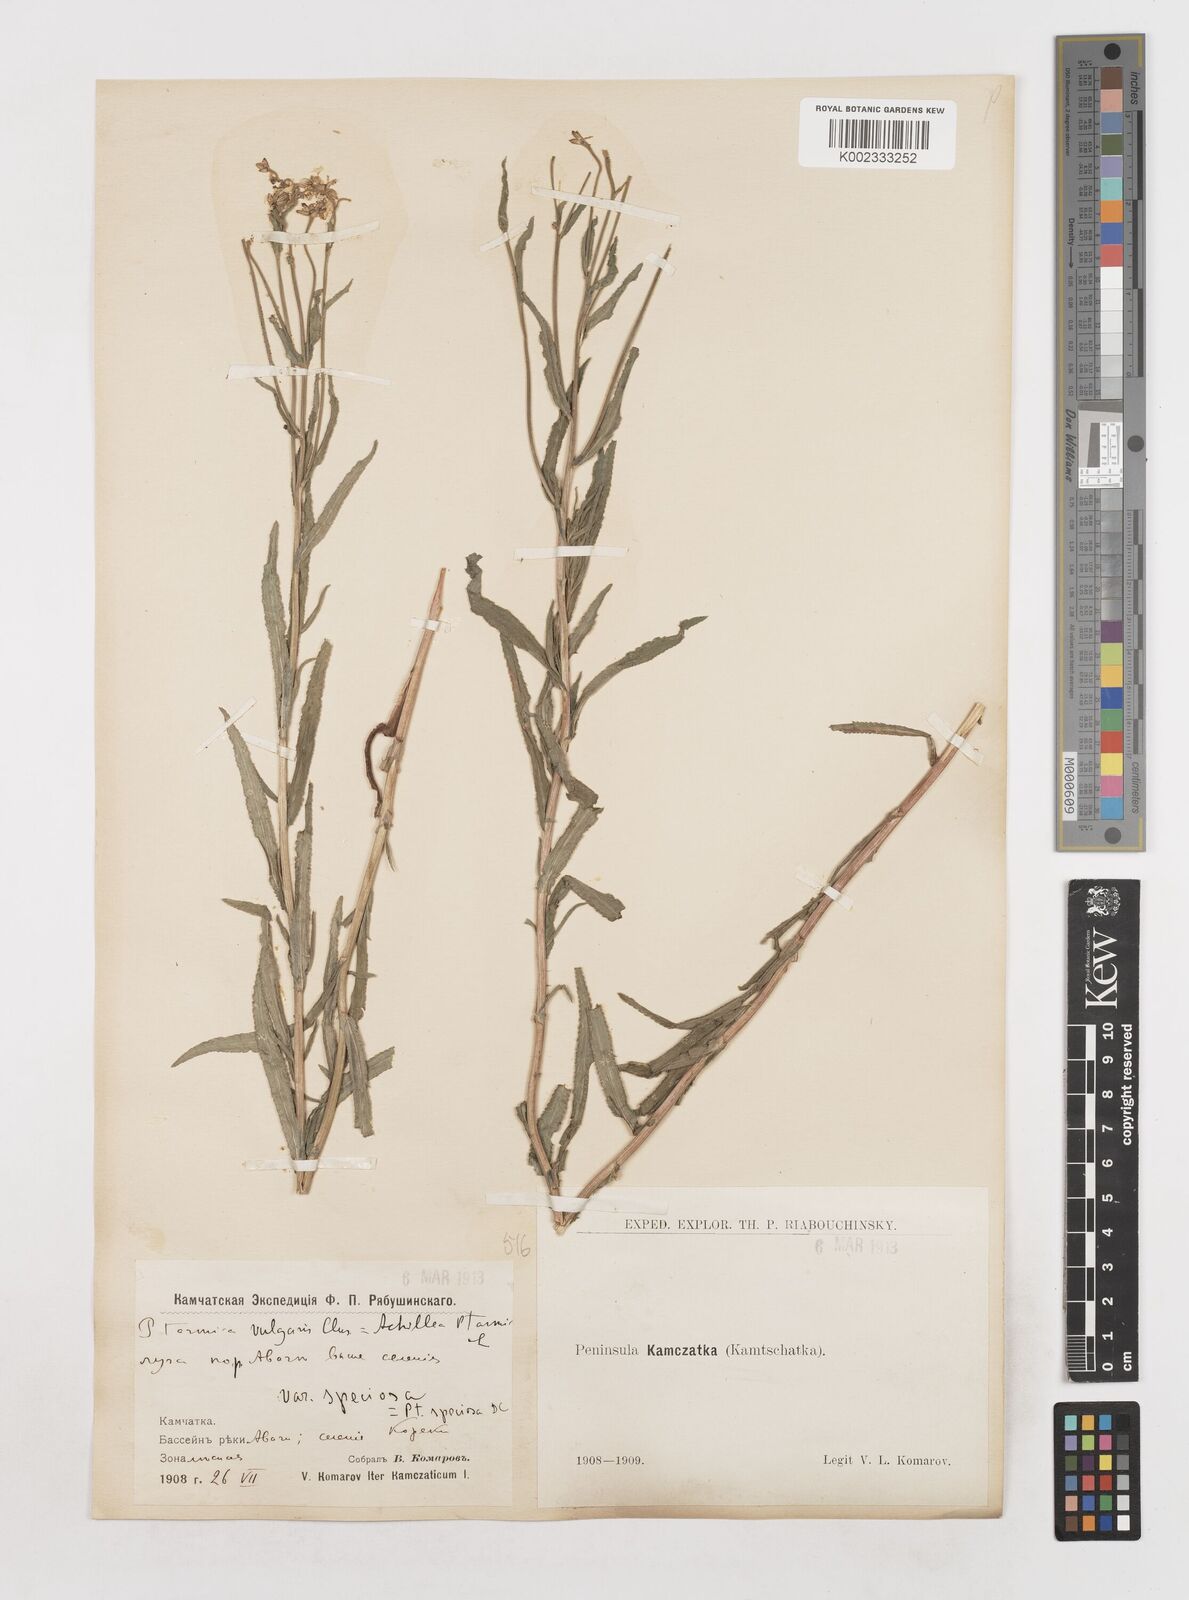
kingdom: Plantae
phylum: Tracheophyta
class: Magnoliopsida
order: Asterales
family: Asteraceae
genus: Achillea
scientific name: Achillea ptarmica
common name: Sneezeweed
